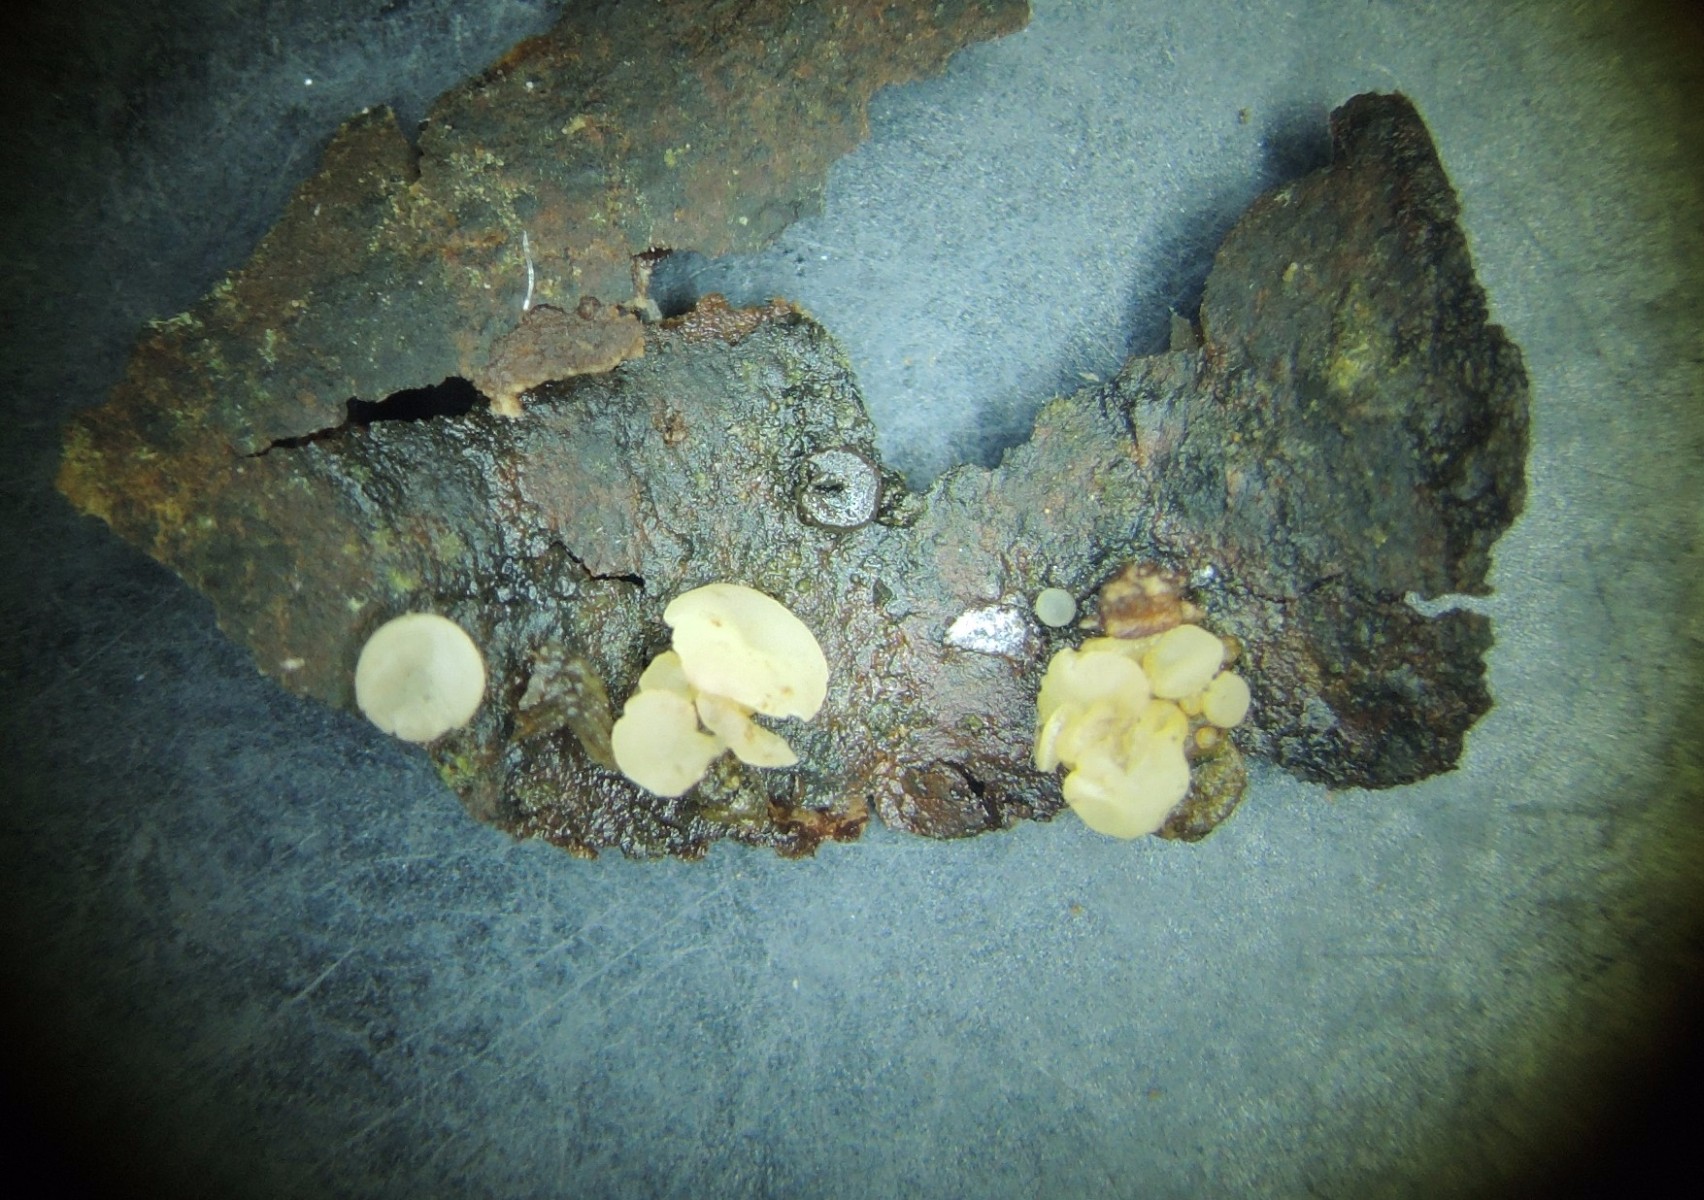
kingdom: Fungi
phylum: Ascomycota
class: Leotiomycetes
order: Helotiales
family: Tricladiaceae
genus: Cudoniella
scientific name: Cudoniella clavus
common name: stor dyndskive
